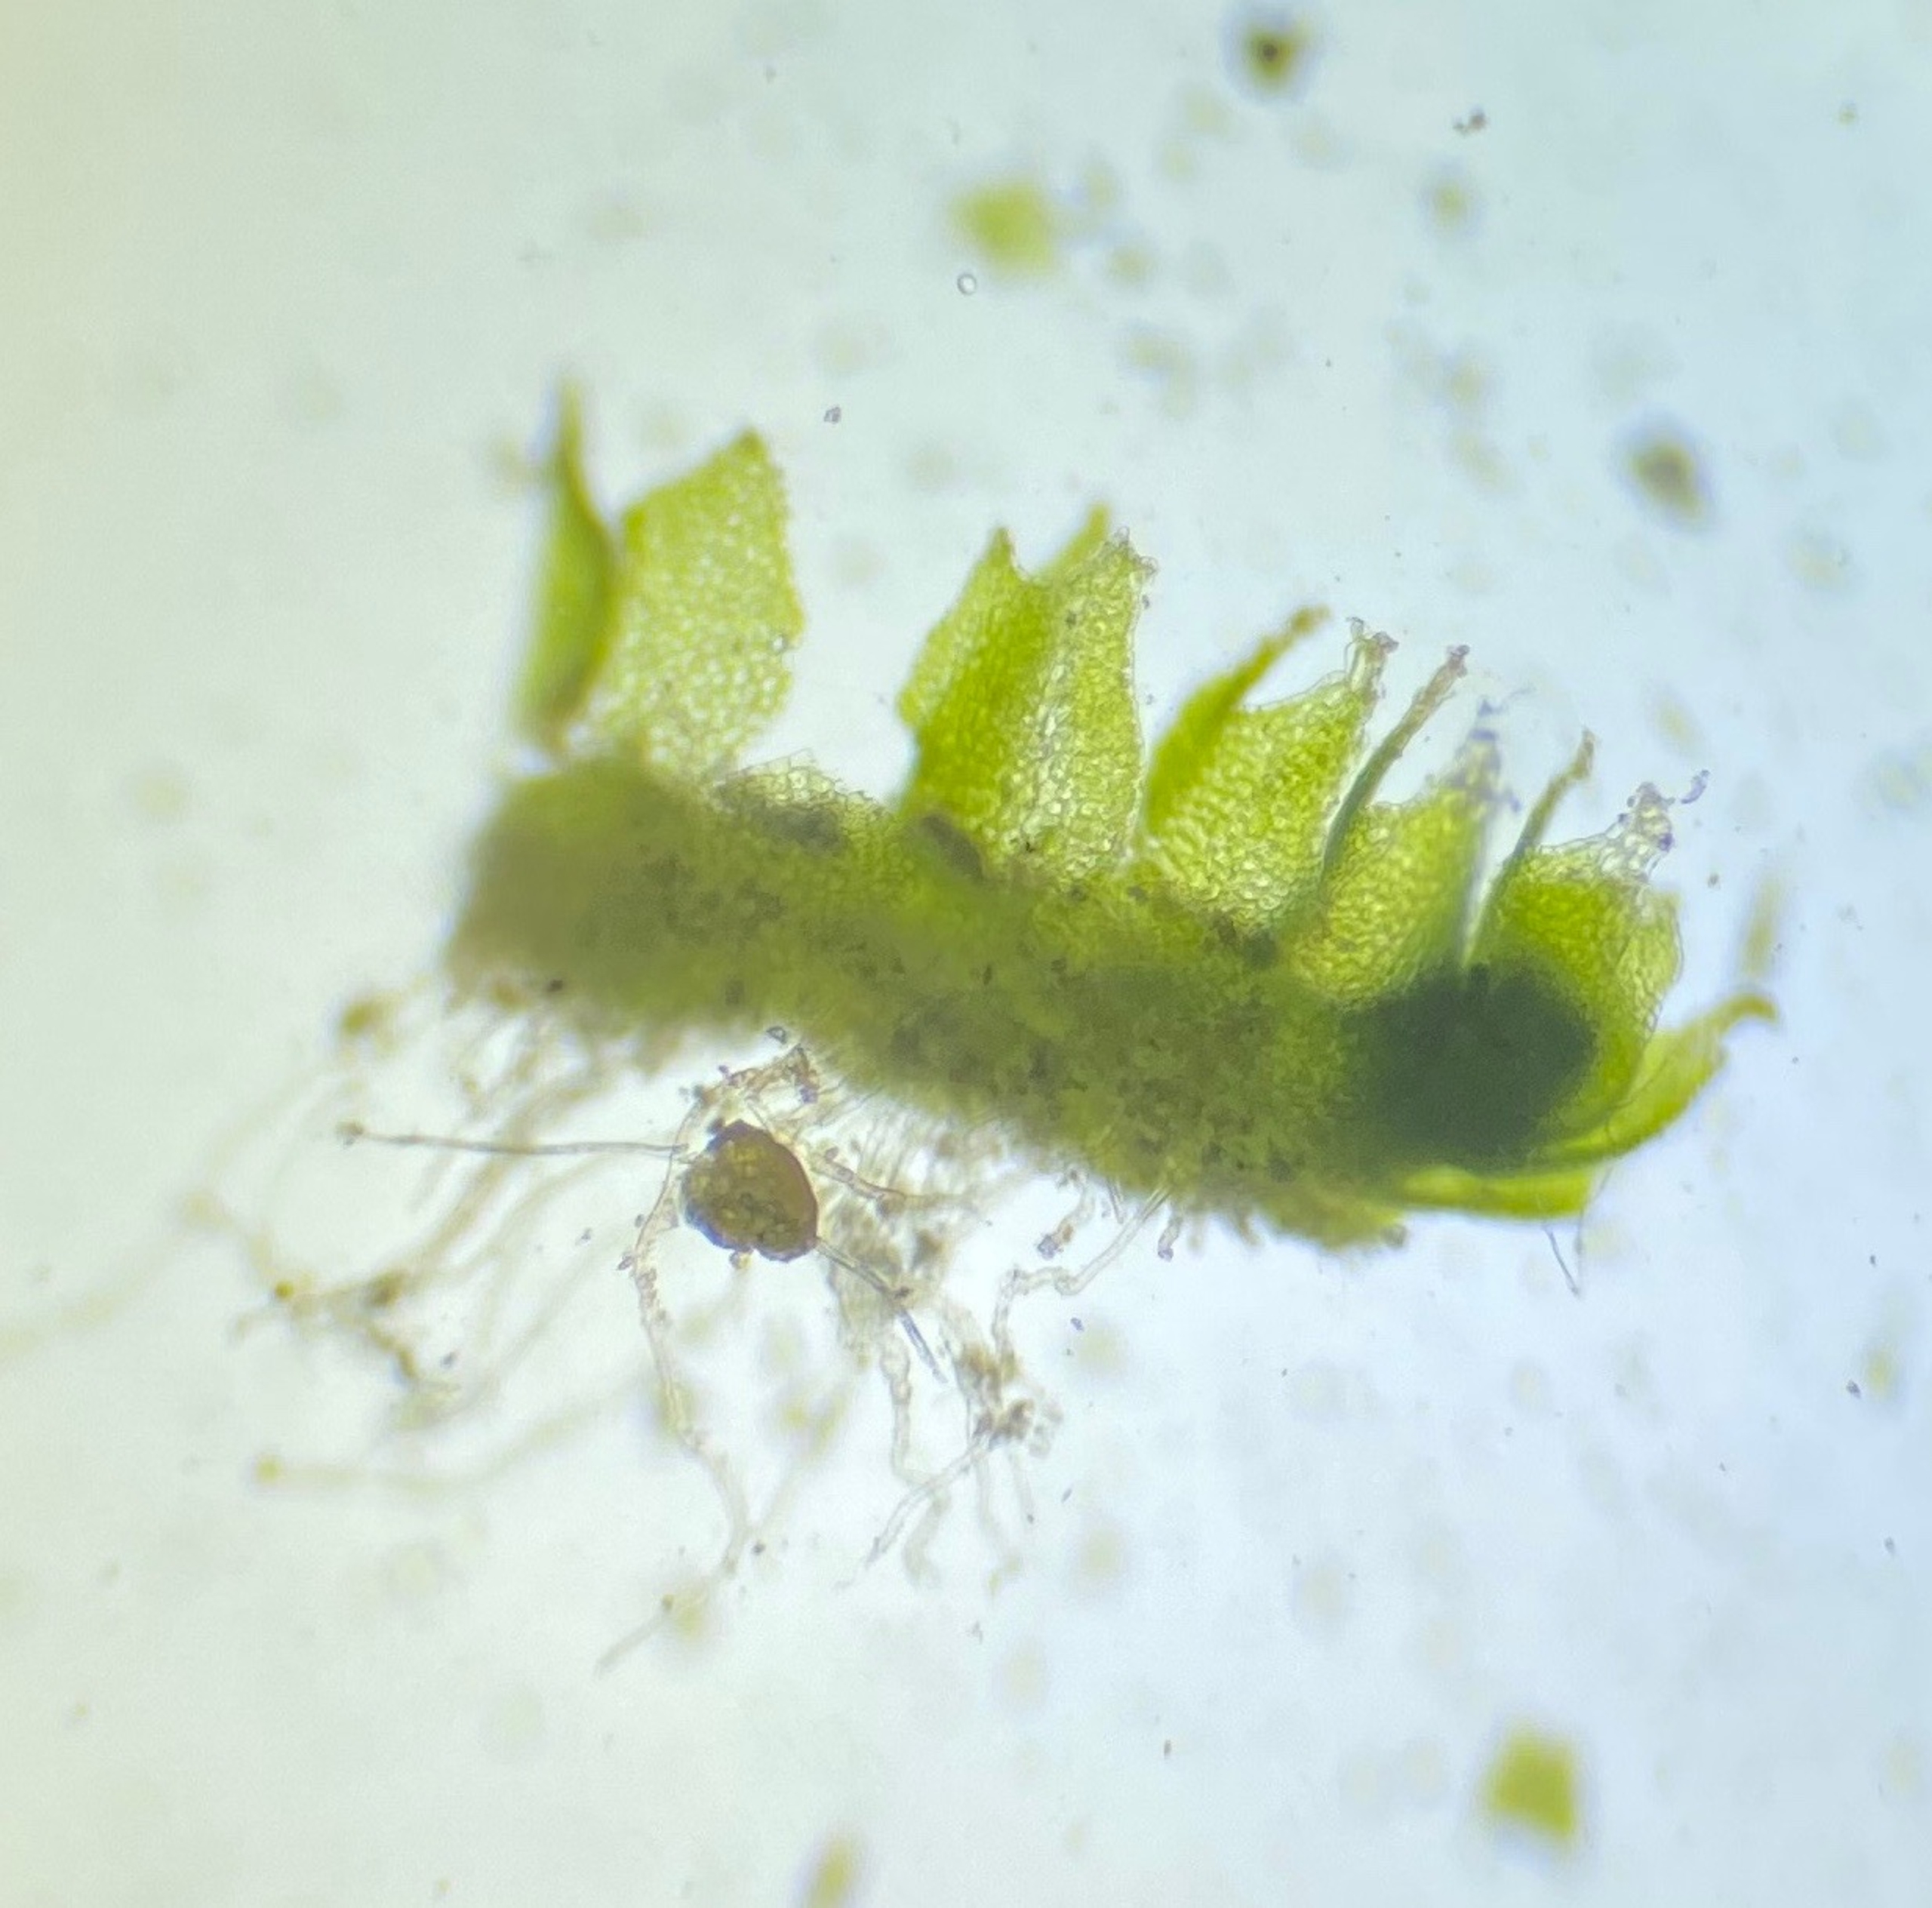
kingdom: Plantae
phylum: Marchantiophyta
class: Jungermanniopsida
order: Jungermanniales
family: Cephaloziellaceae
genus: Oleolophozia
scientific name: Oleolophozia perssonii
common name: Kalk-foldbæger
